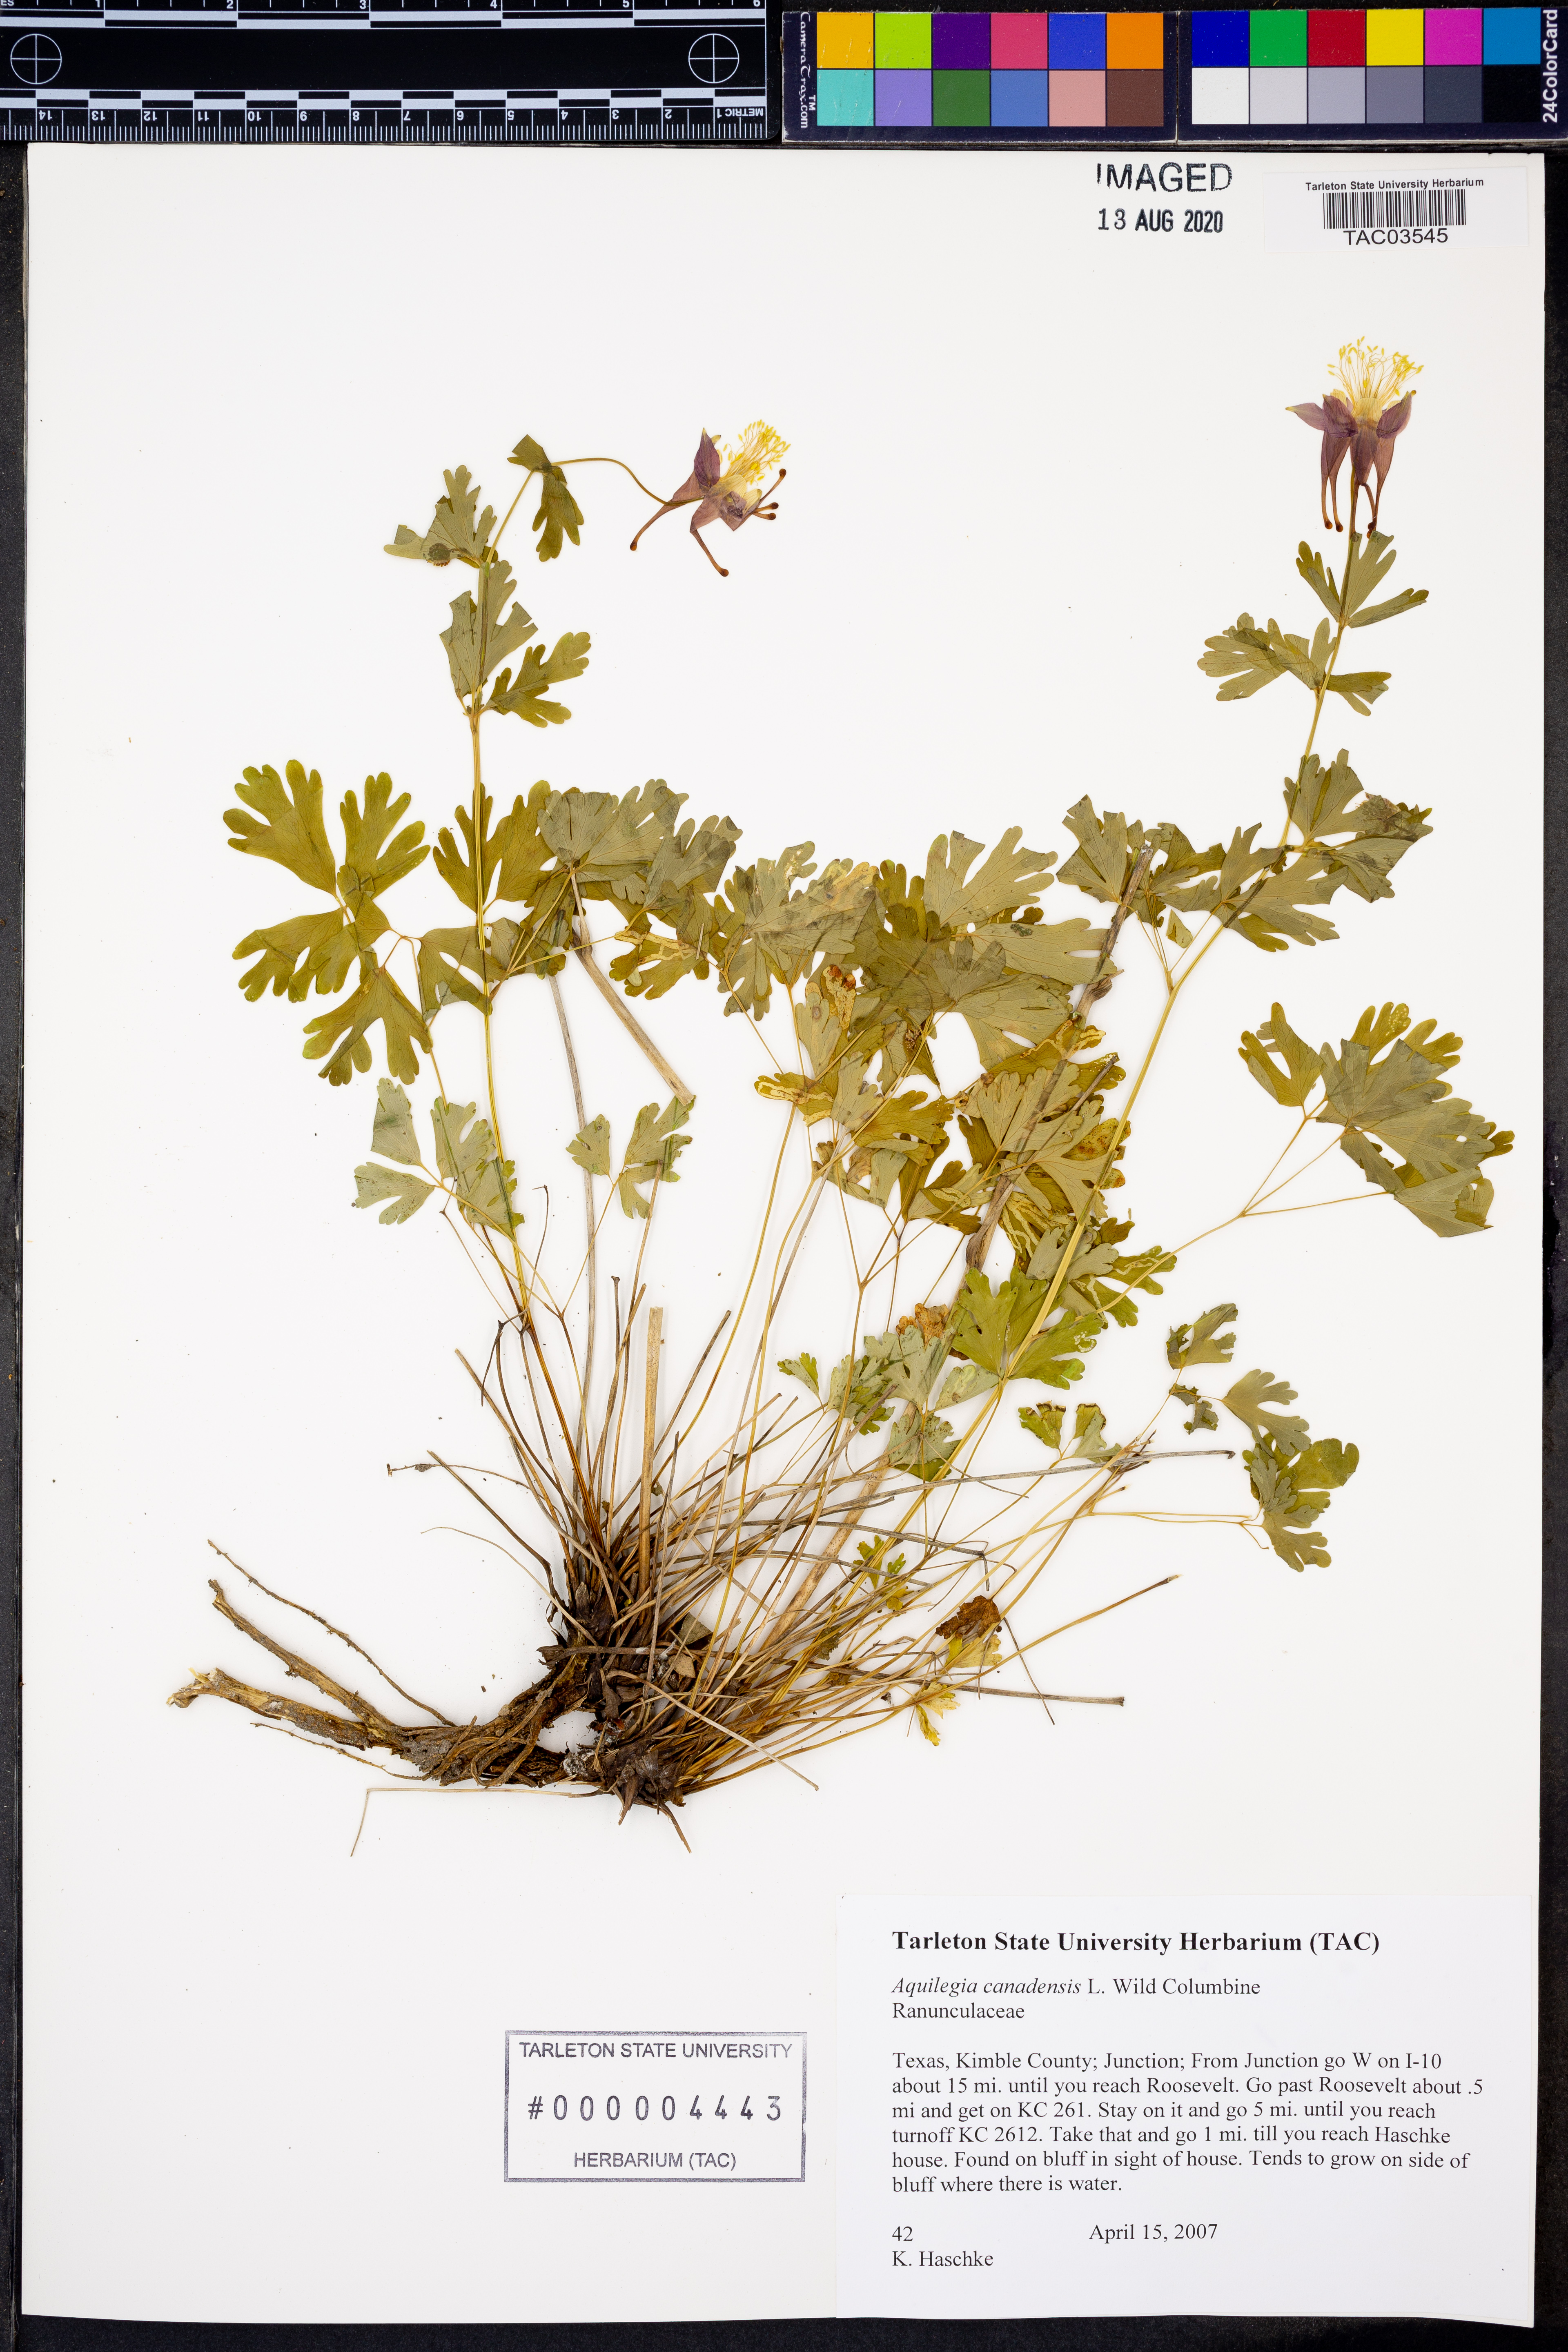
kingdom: Plantae
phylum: Tracheophyta
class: Magnoliopsida
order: Ranunculales
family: Ranunculaceae
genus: Aquilegia
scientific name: Aquilegia canadensis
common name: American columbine
